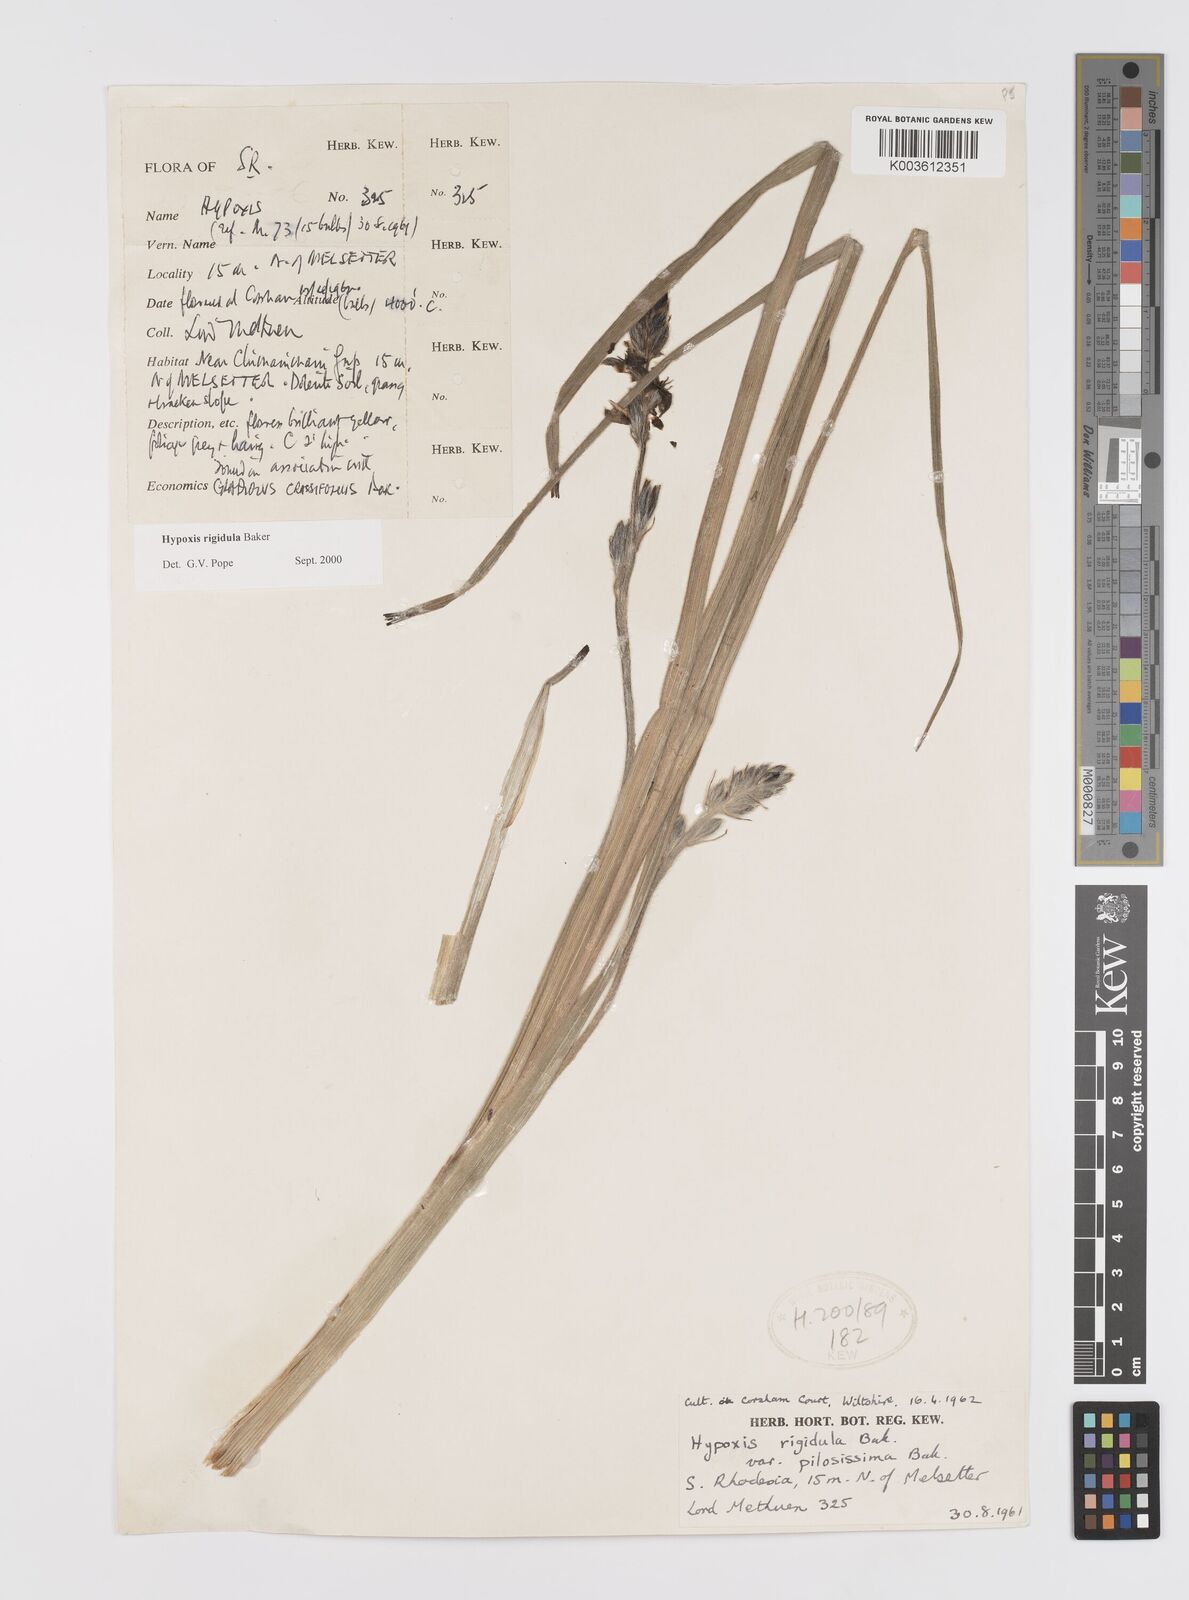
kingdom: Plantae
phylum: Tracheophyta
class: Liliopsida
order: Asparagales
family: Hypoxidaceae
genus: Hypoxis
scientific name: Hypoxis rigidula
